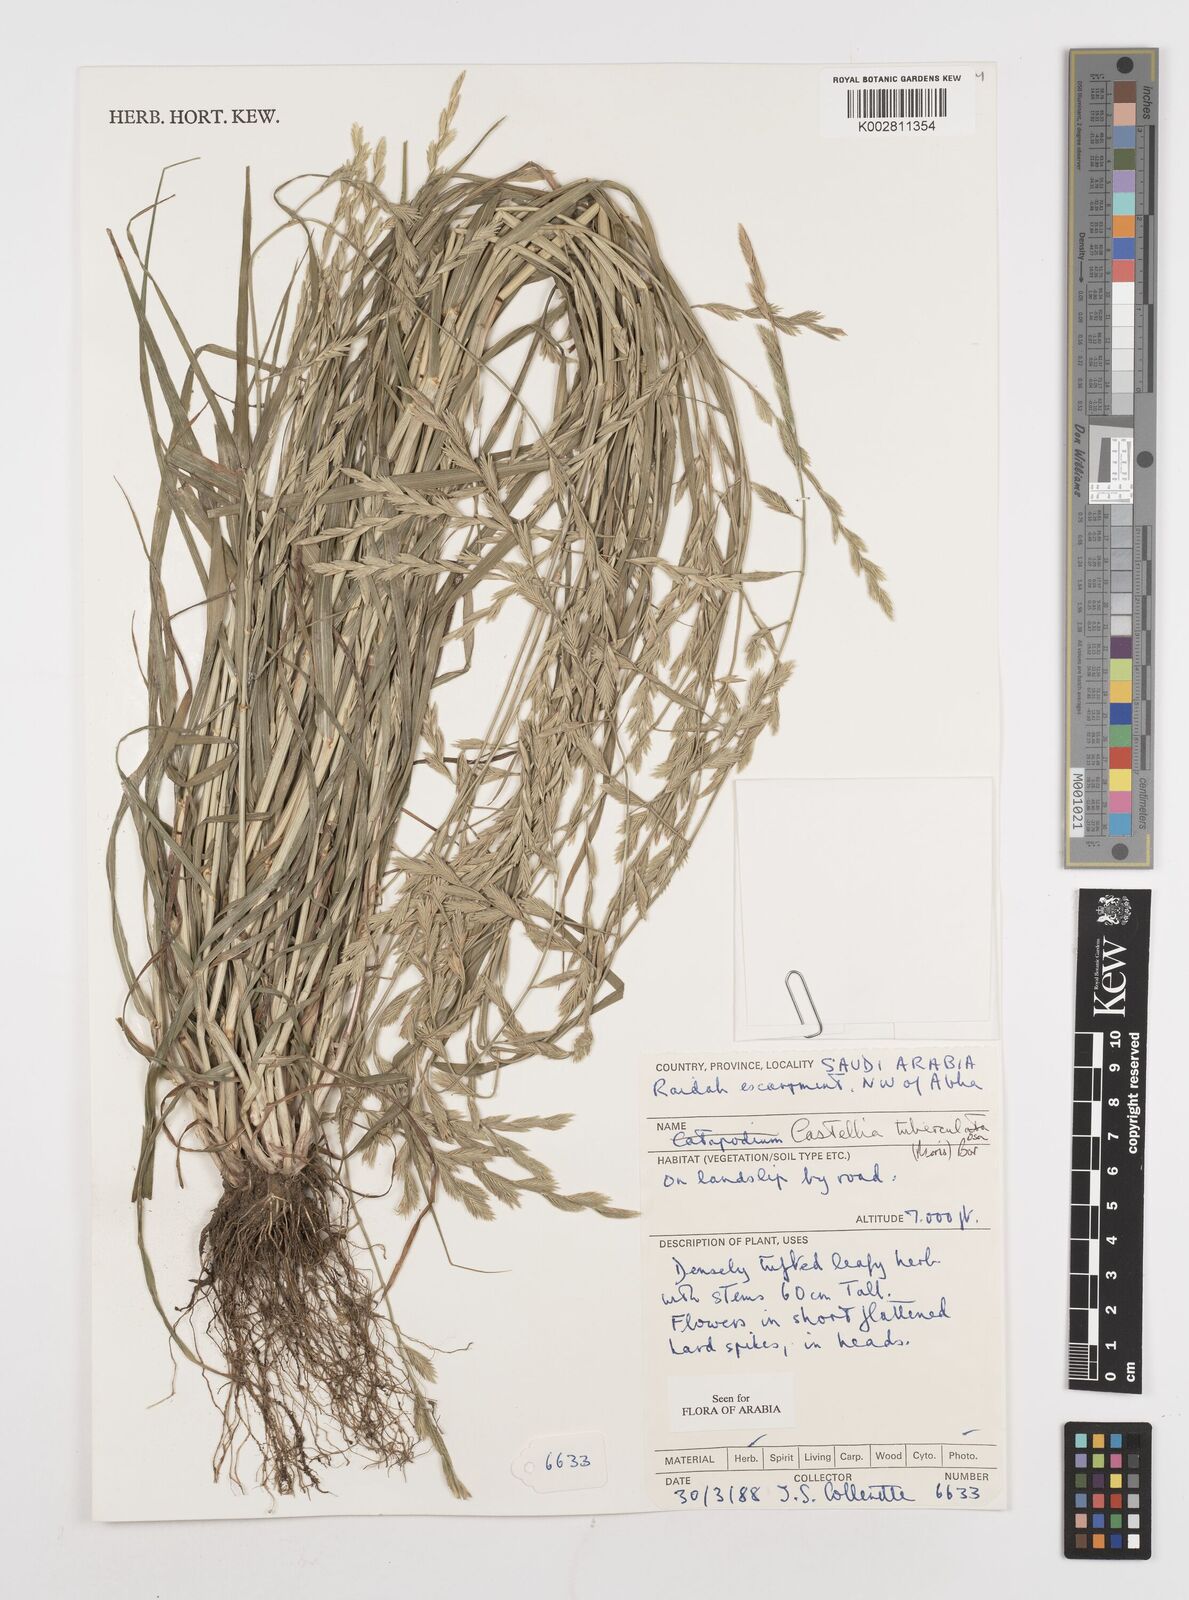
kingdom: Plantae
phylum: Tracheophyta
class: Liliopsida
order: Poales
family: Poaceae
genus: Castellia
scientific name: Castellia tuberculosa
